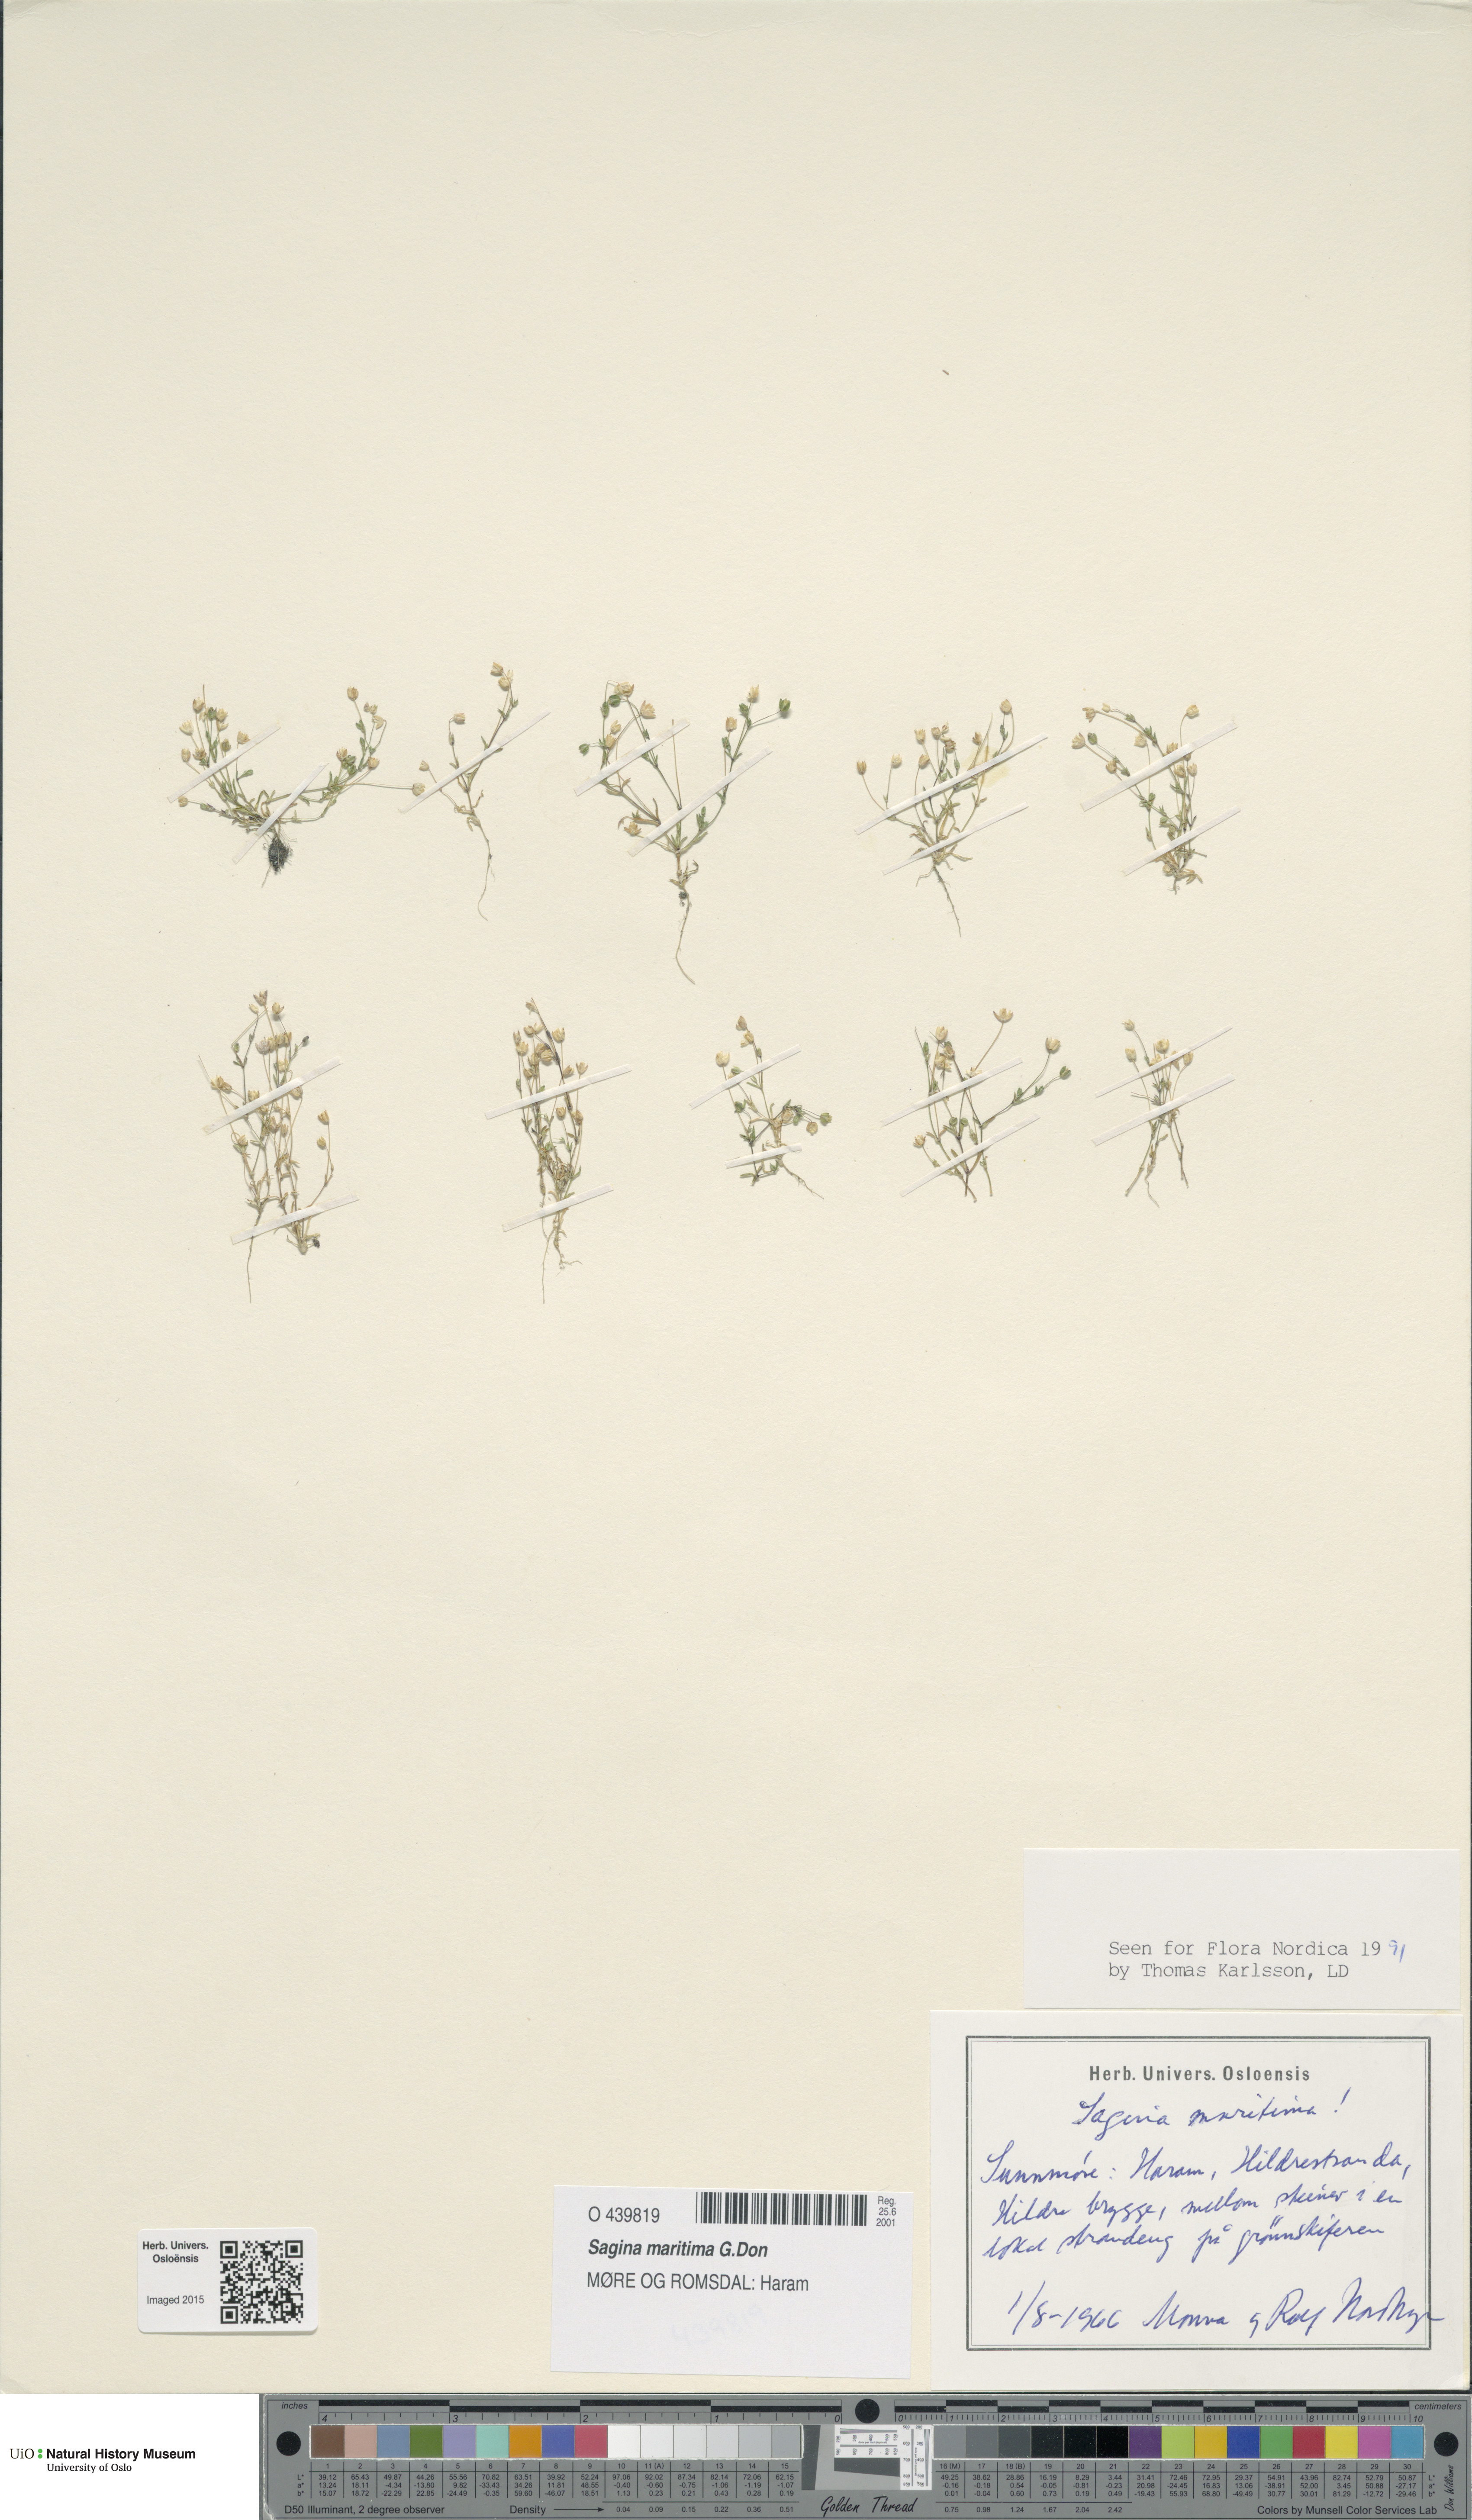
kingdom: Plantae
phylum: Tracheophyta
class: Magnoliopsida
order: Caryophyllales
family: Caryophyllaceae
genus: Sagina
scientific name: Sagina maritima
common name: Sea pearlwort
